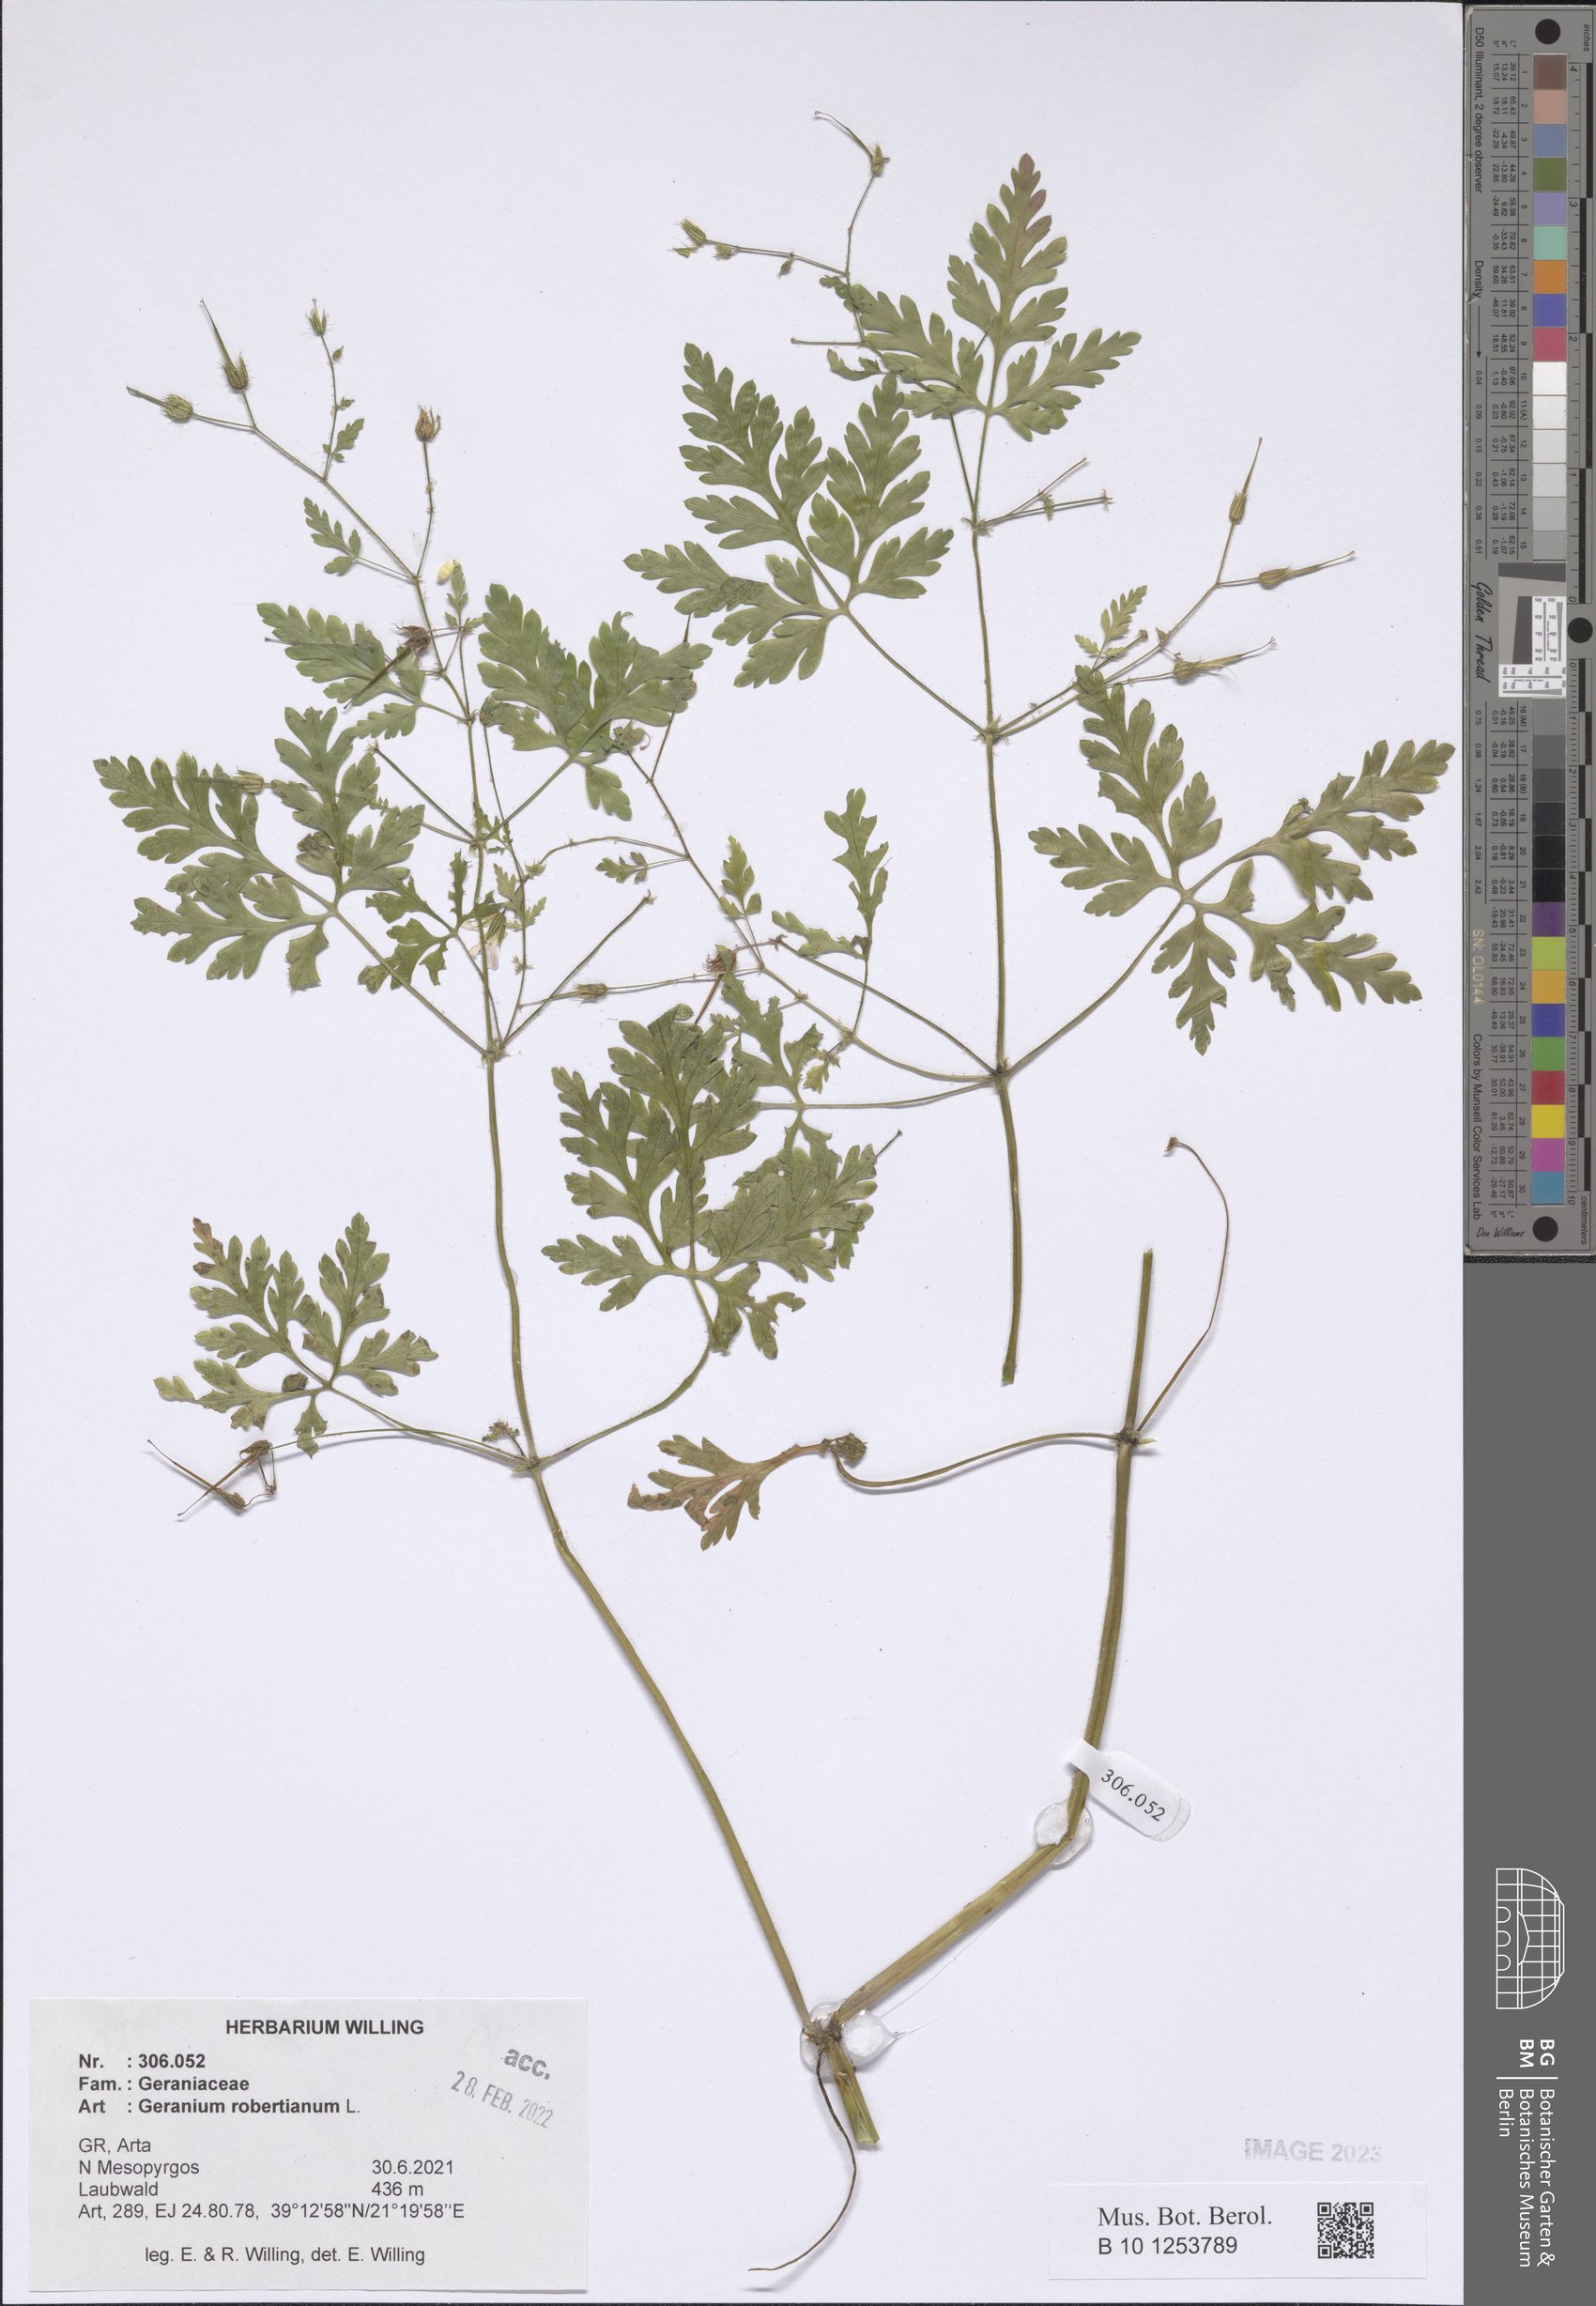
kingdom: Plantae
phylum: Tracheophyta
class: Magnoliopsida
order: Geraniales
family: Geraniaceae
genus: Geranium
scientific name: Geranium robertianum
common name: Herb-robert
